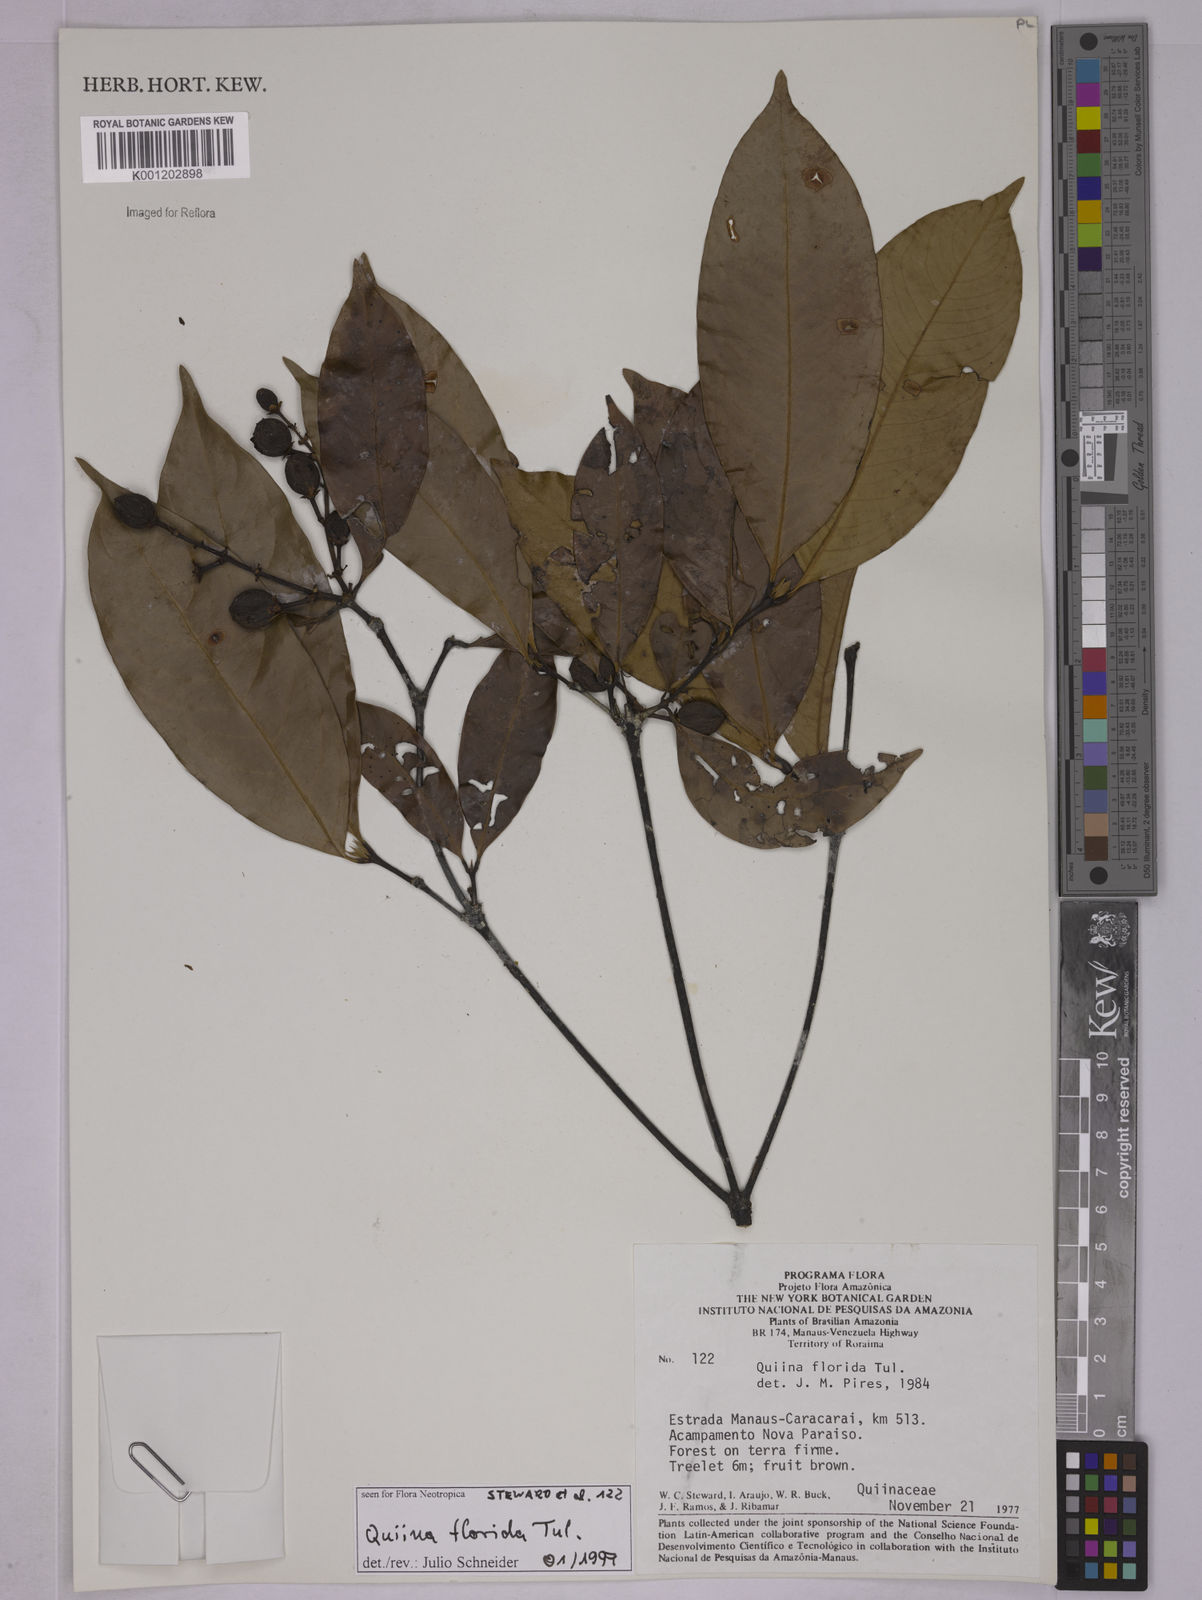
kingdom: Plantae
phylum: Tracheophyta
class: Magnoliopsida
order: Malpighiales
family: Quiinaceae
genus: Quiina
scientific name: Quiina florida
